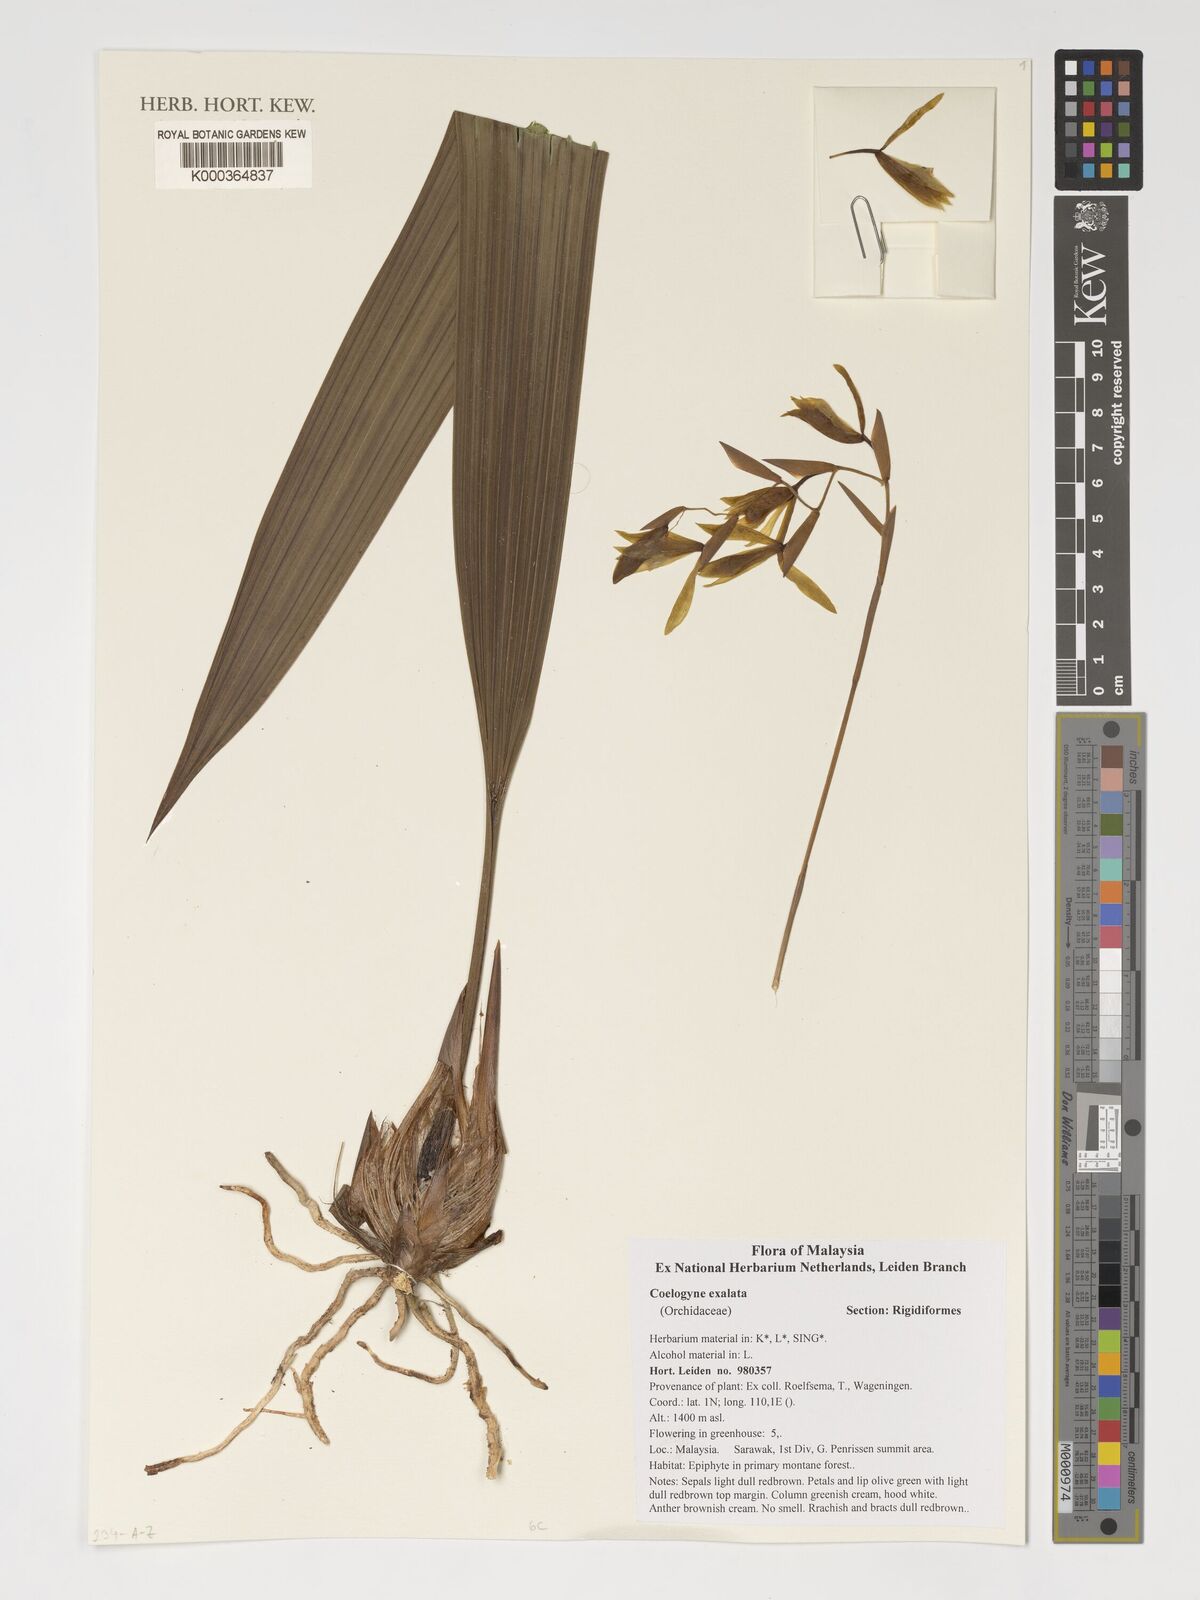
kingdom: Plantae
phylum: Tracheophyta
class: Liliopsida
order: Asparagales
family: Orchidaceae
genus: Coelogyne
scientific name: Coelogyne exalata
